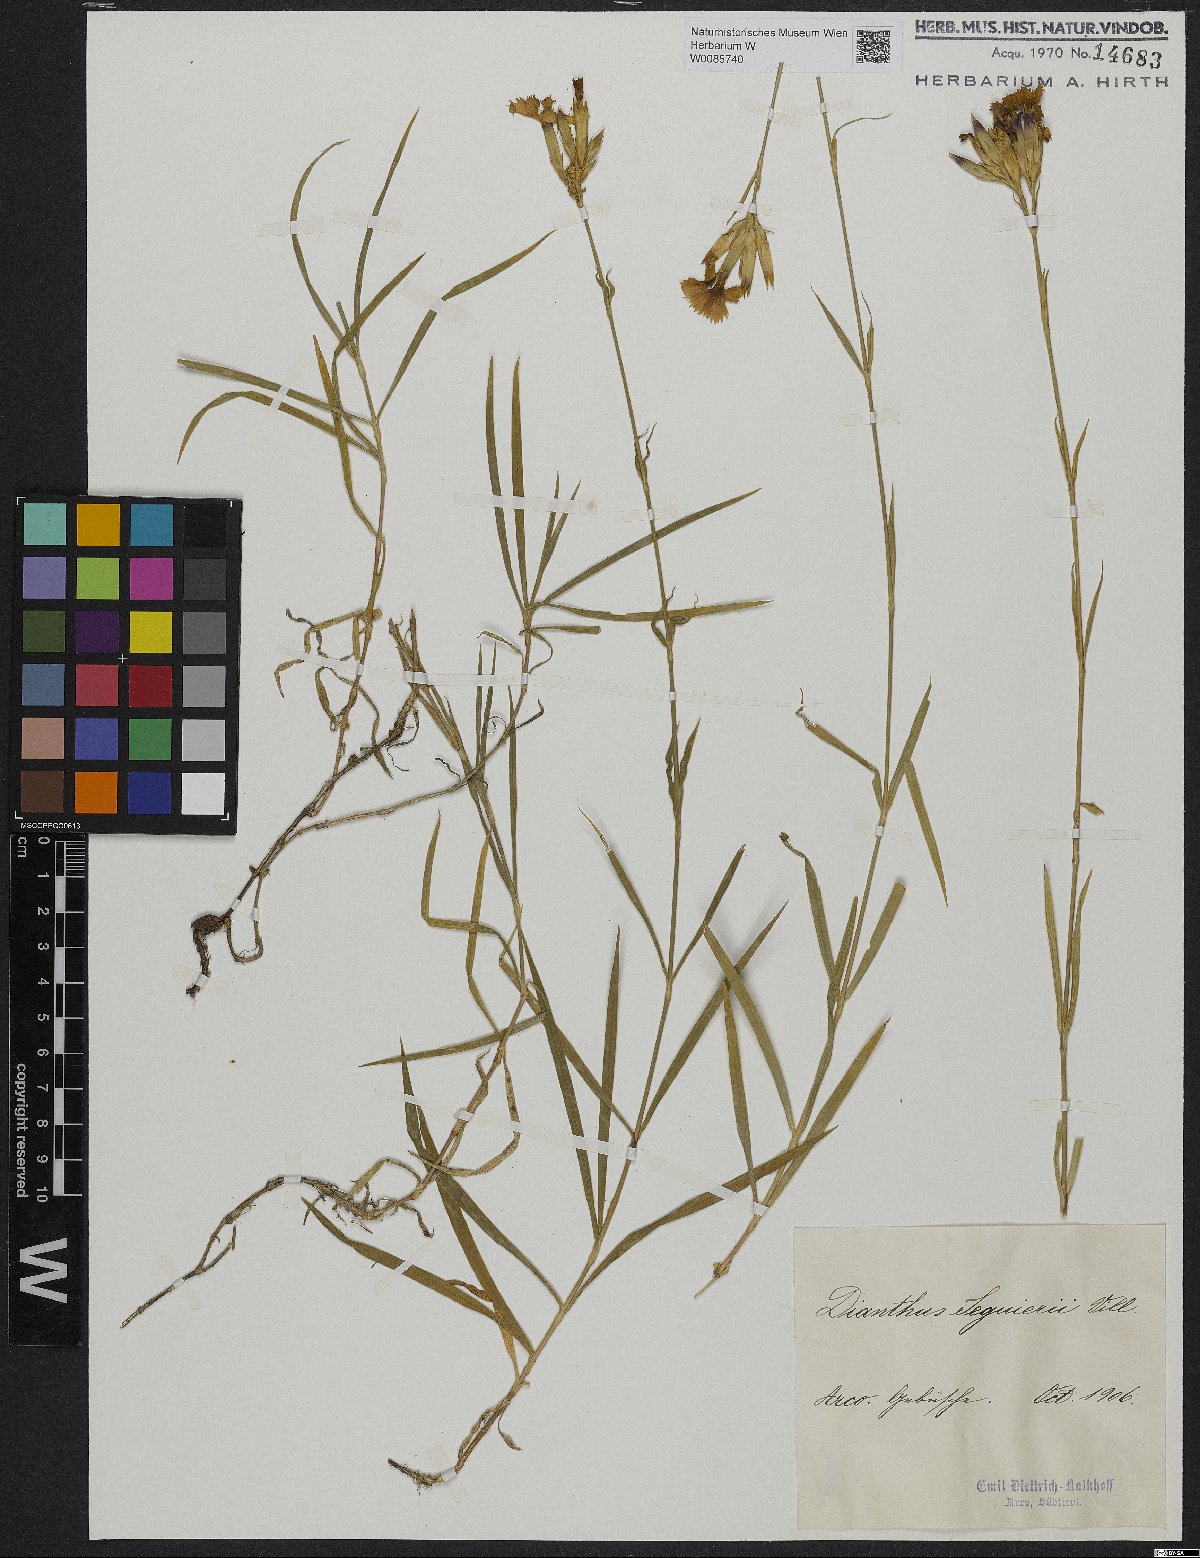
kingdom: Plantae
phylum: Tracheophyta
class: Magnoliopsida
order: Caryophyllales
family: Caryophyllaceae
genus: Dianthus
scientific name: Dianthus seguieri
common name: Ragged pink
